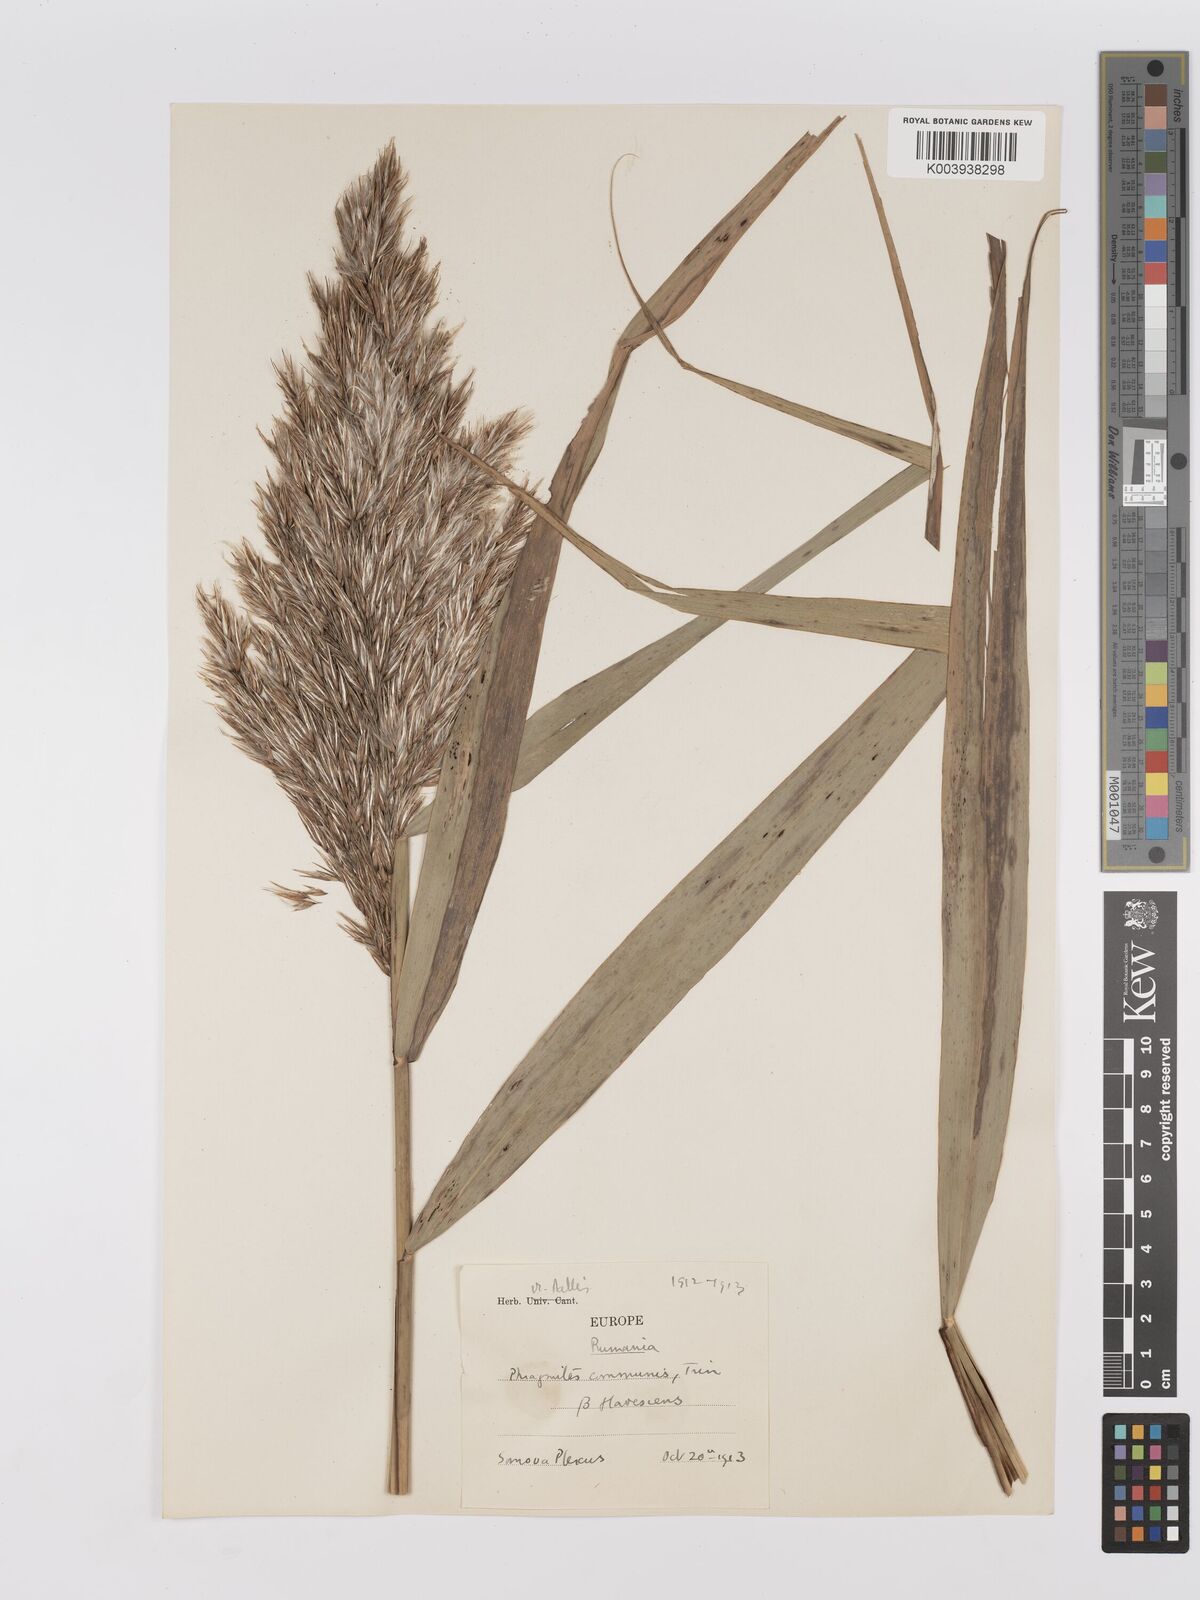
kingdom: Plantae
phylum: Tracheophyta
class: Liliopsida
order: Poales
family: Poaceae
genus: Phragmites
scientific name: Phragmites australis
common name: Common reed
